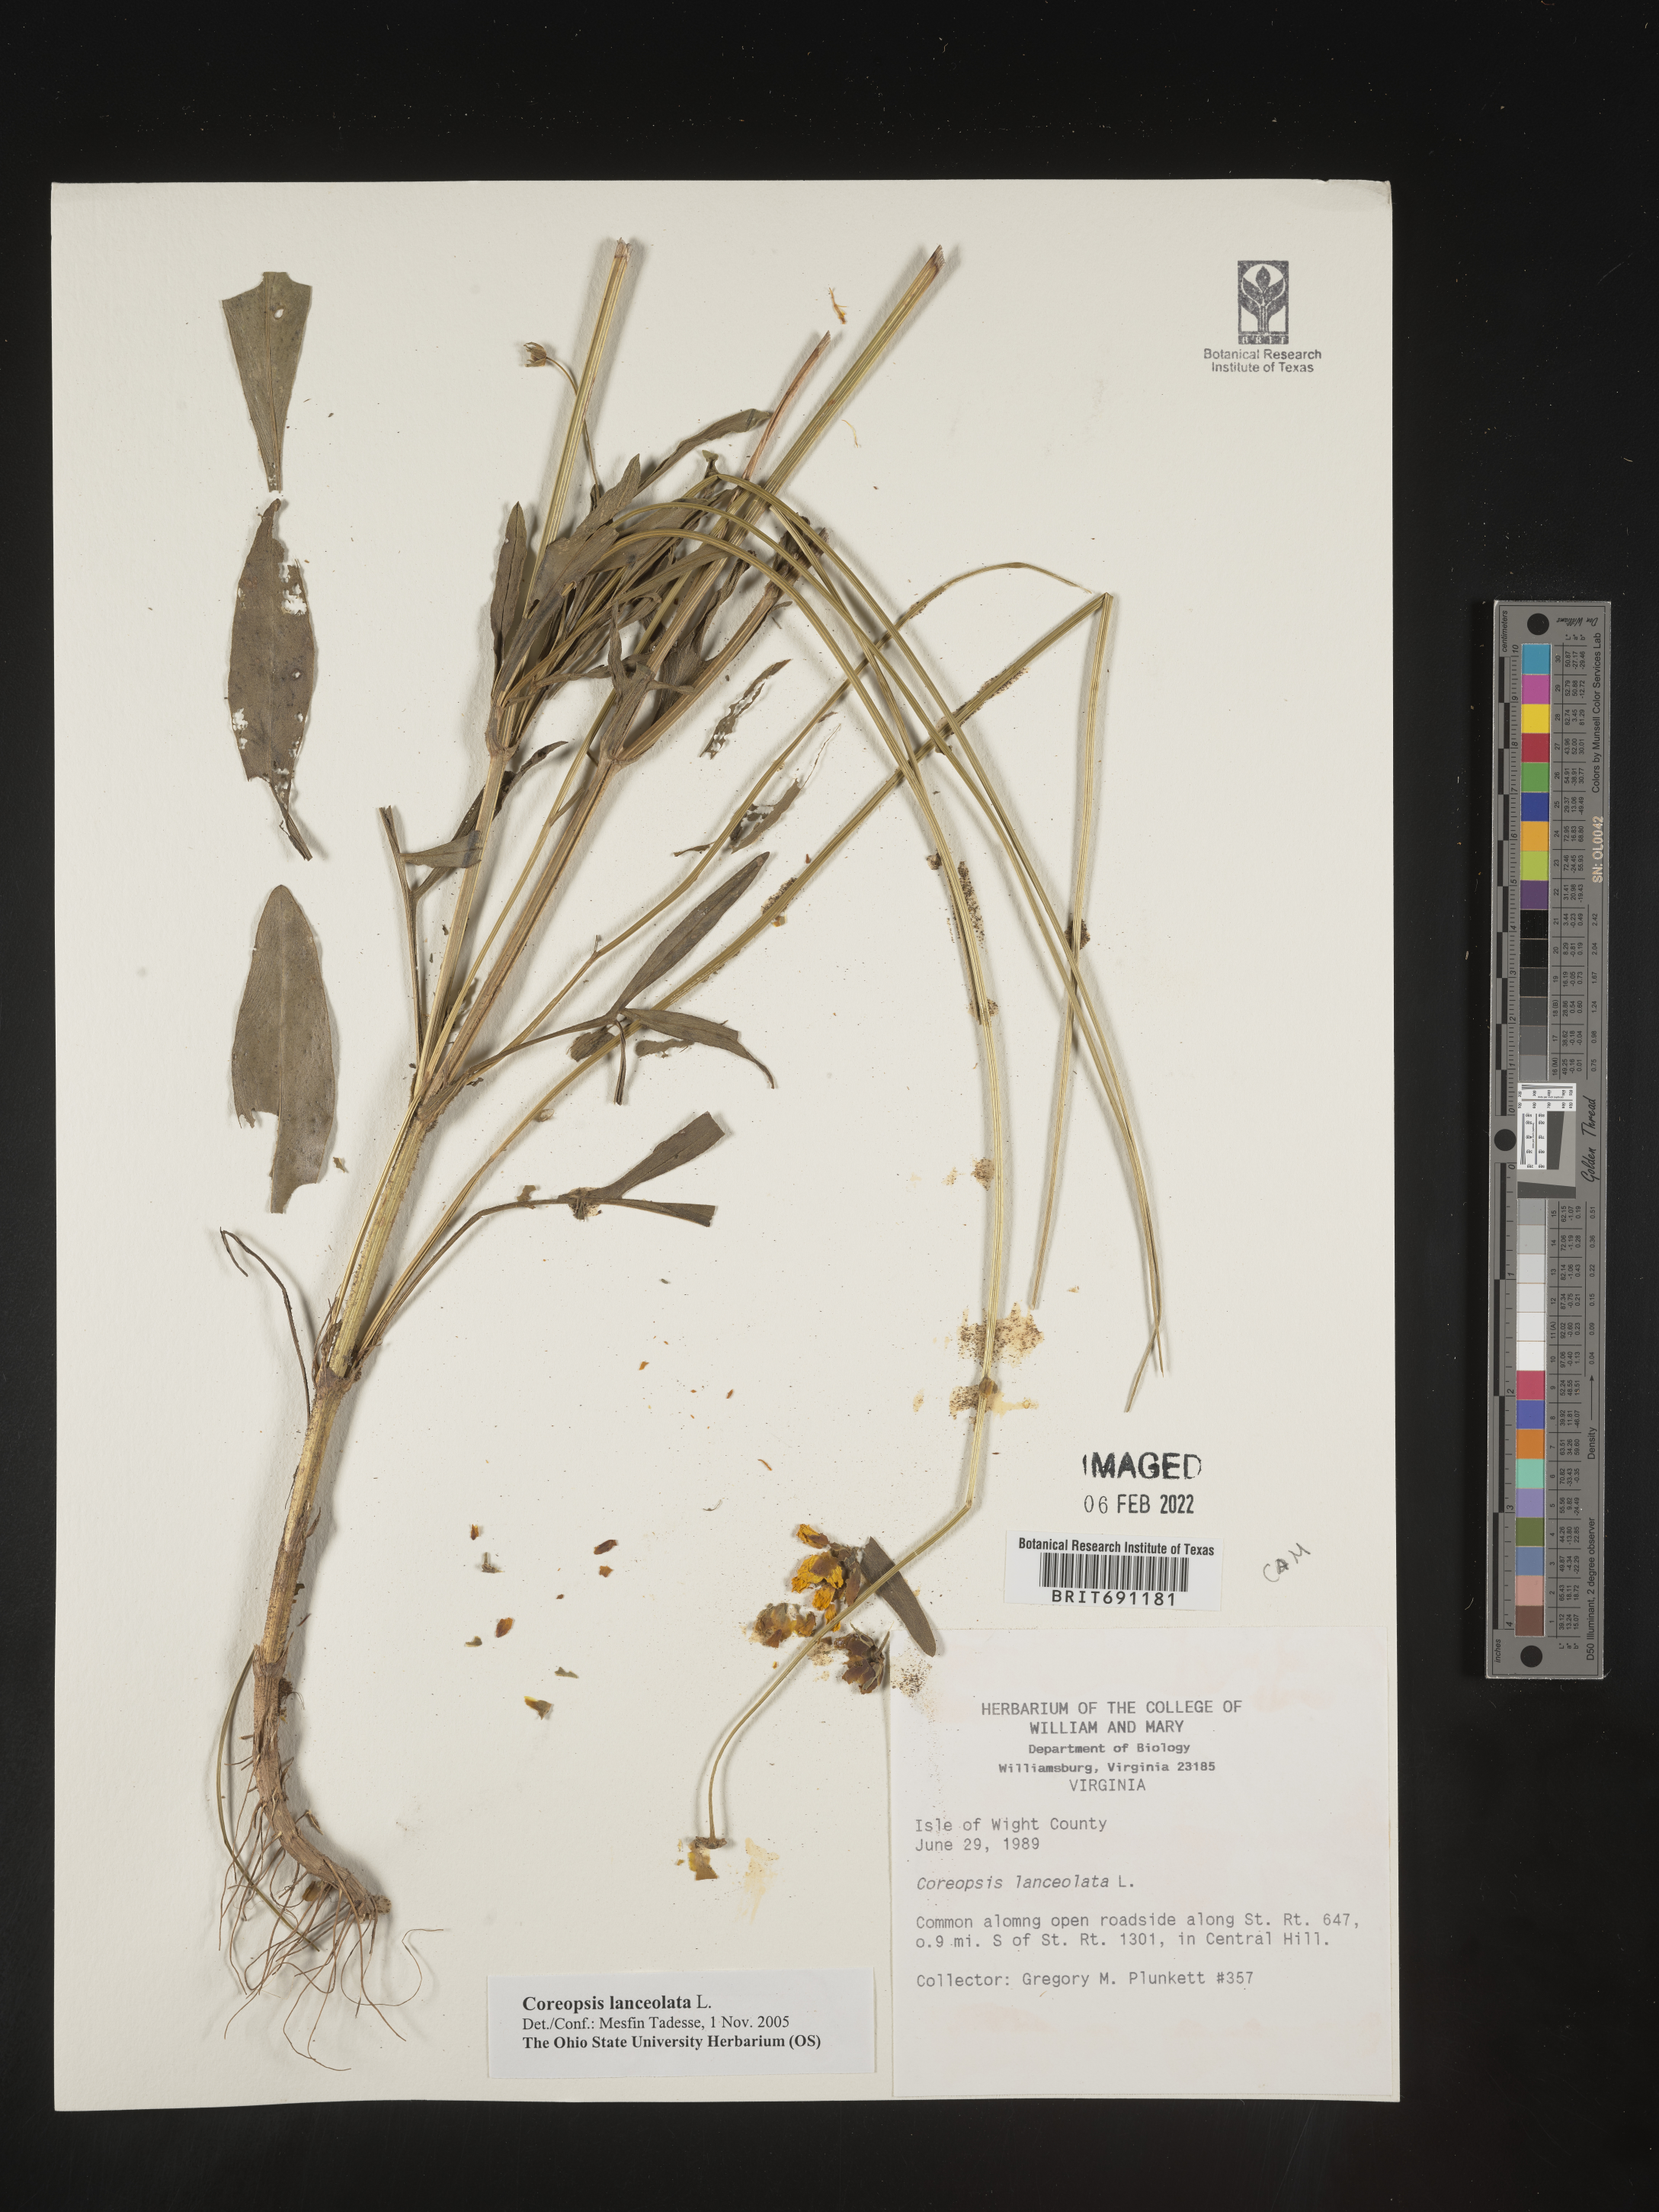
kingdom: Plantae
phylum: Tracheophyta
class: Magnoliopsida
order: Asterales
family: Asteraceae
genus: Coreopsis
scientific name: Coreopsis lanceolata
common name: Garden coreopsis
